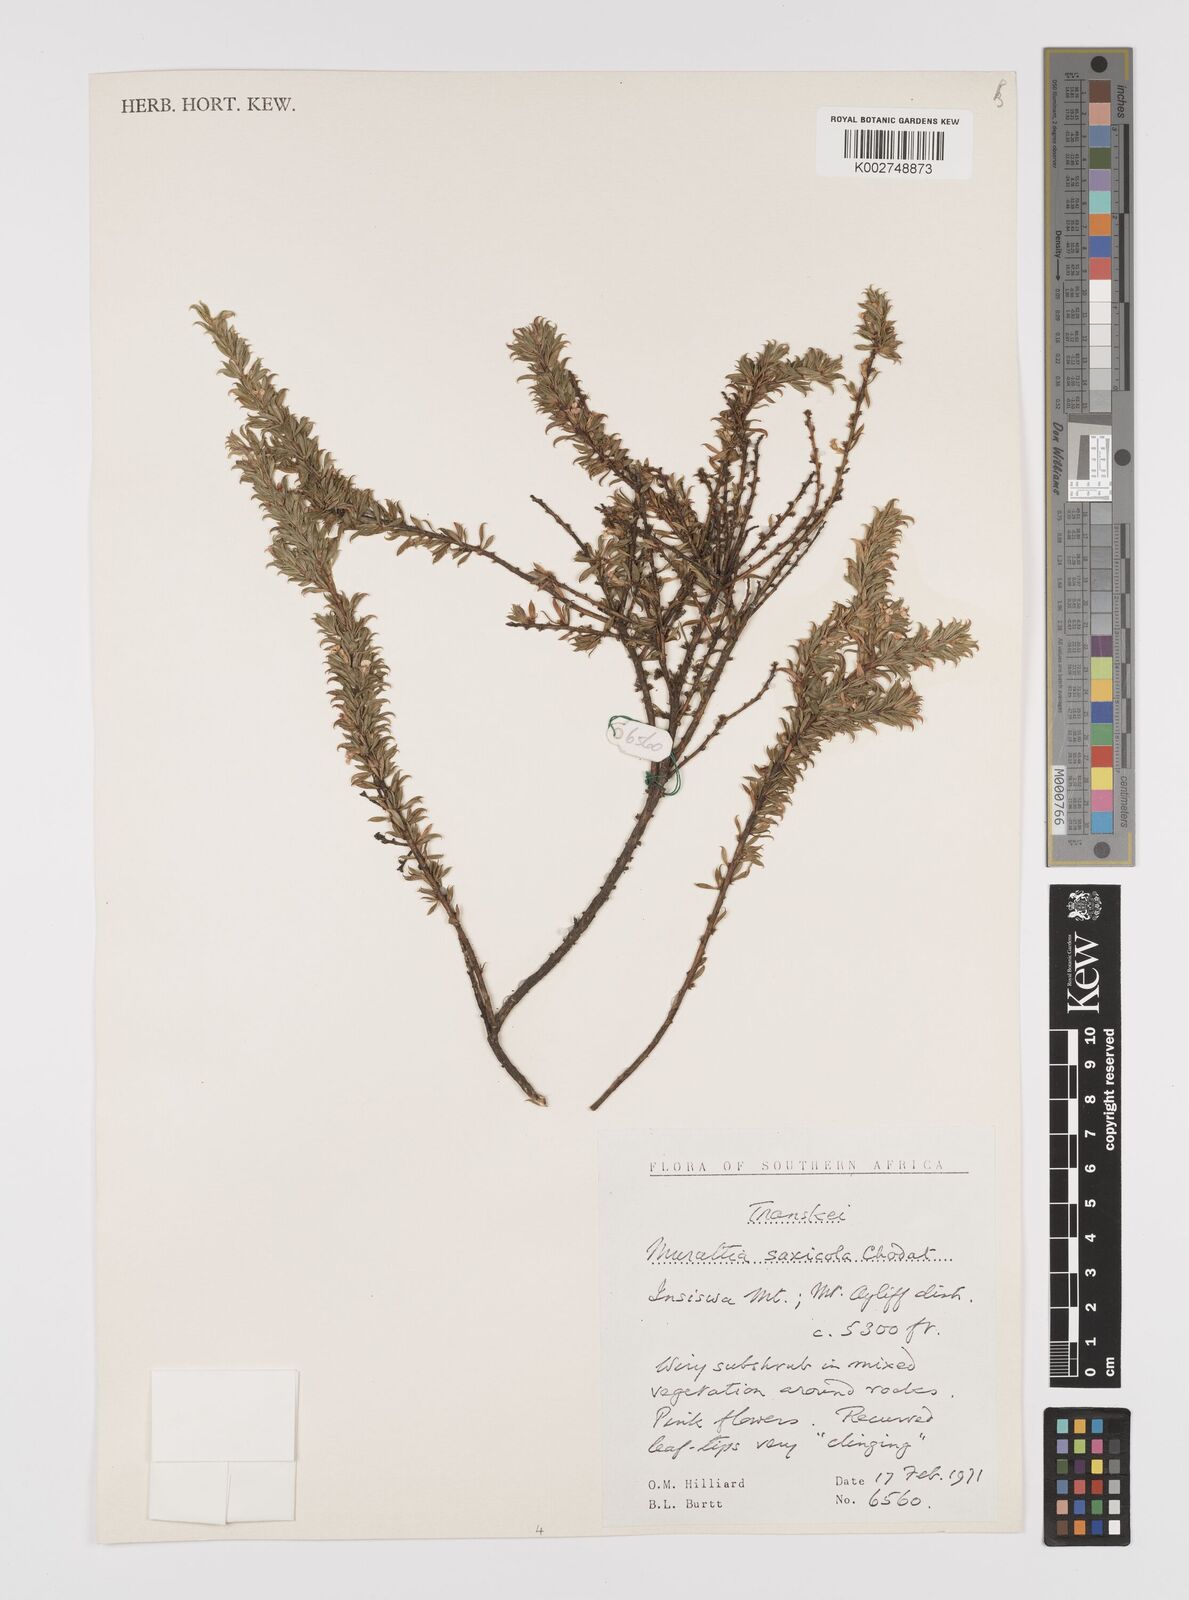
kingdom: Plantae
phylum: Tracheophyta
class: Magnoliopsida
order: Fabales
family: Polygalaceae
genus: Muraltia
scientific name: Muraltia saxicola
